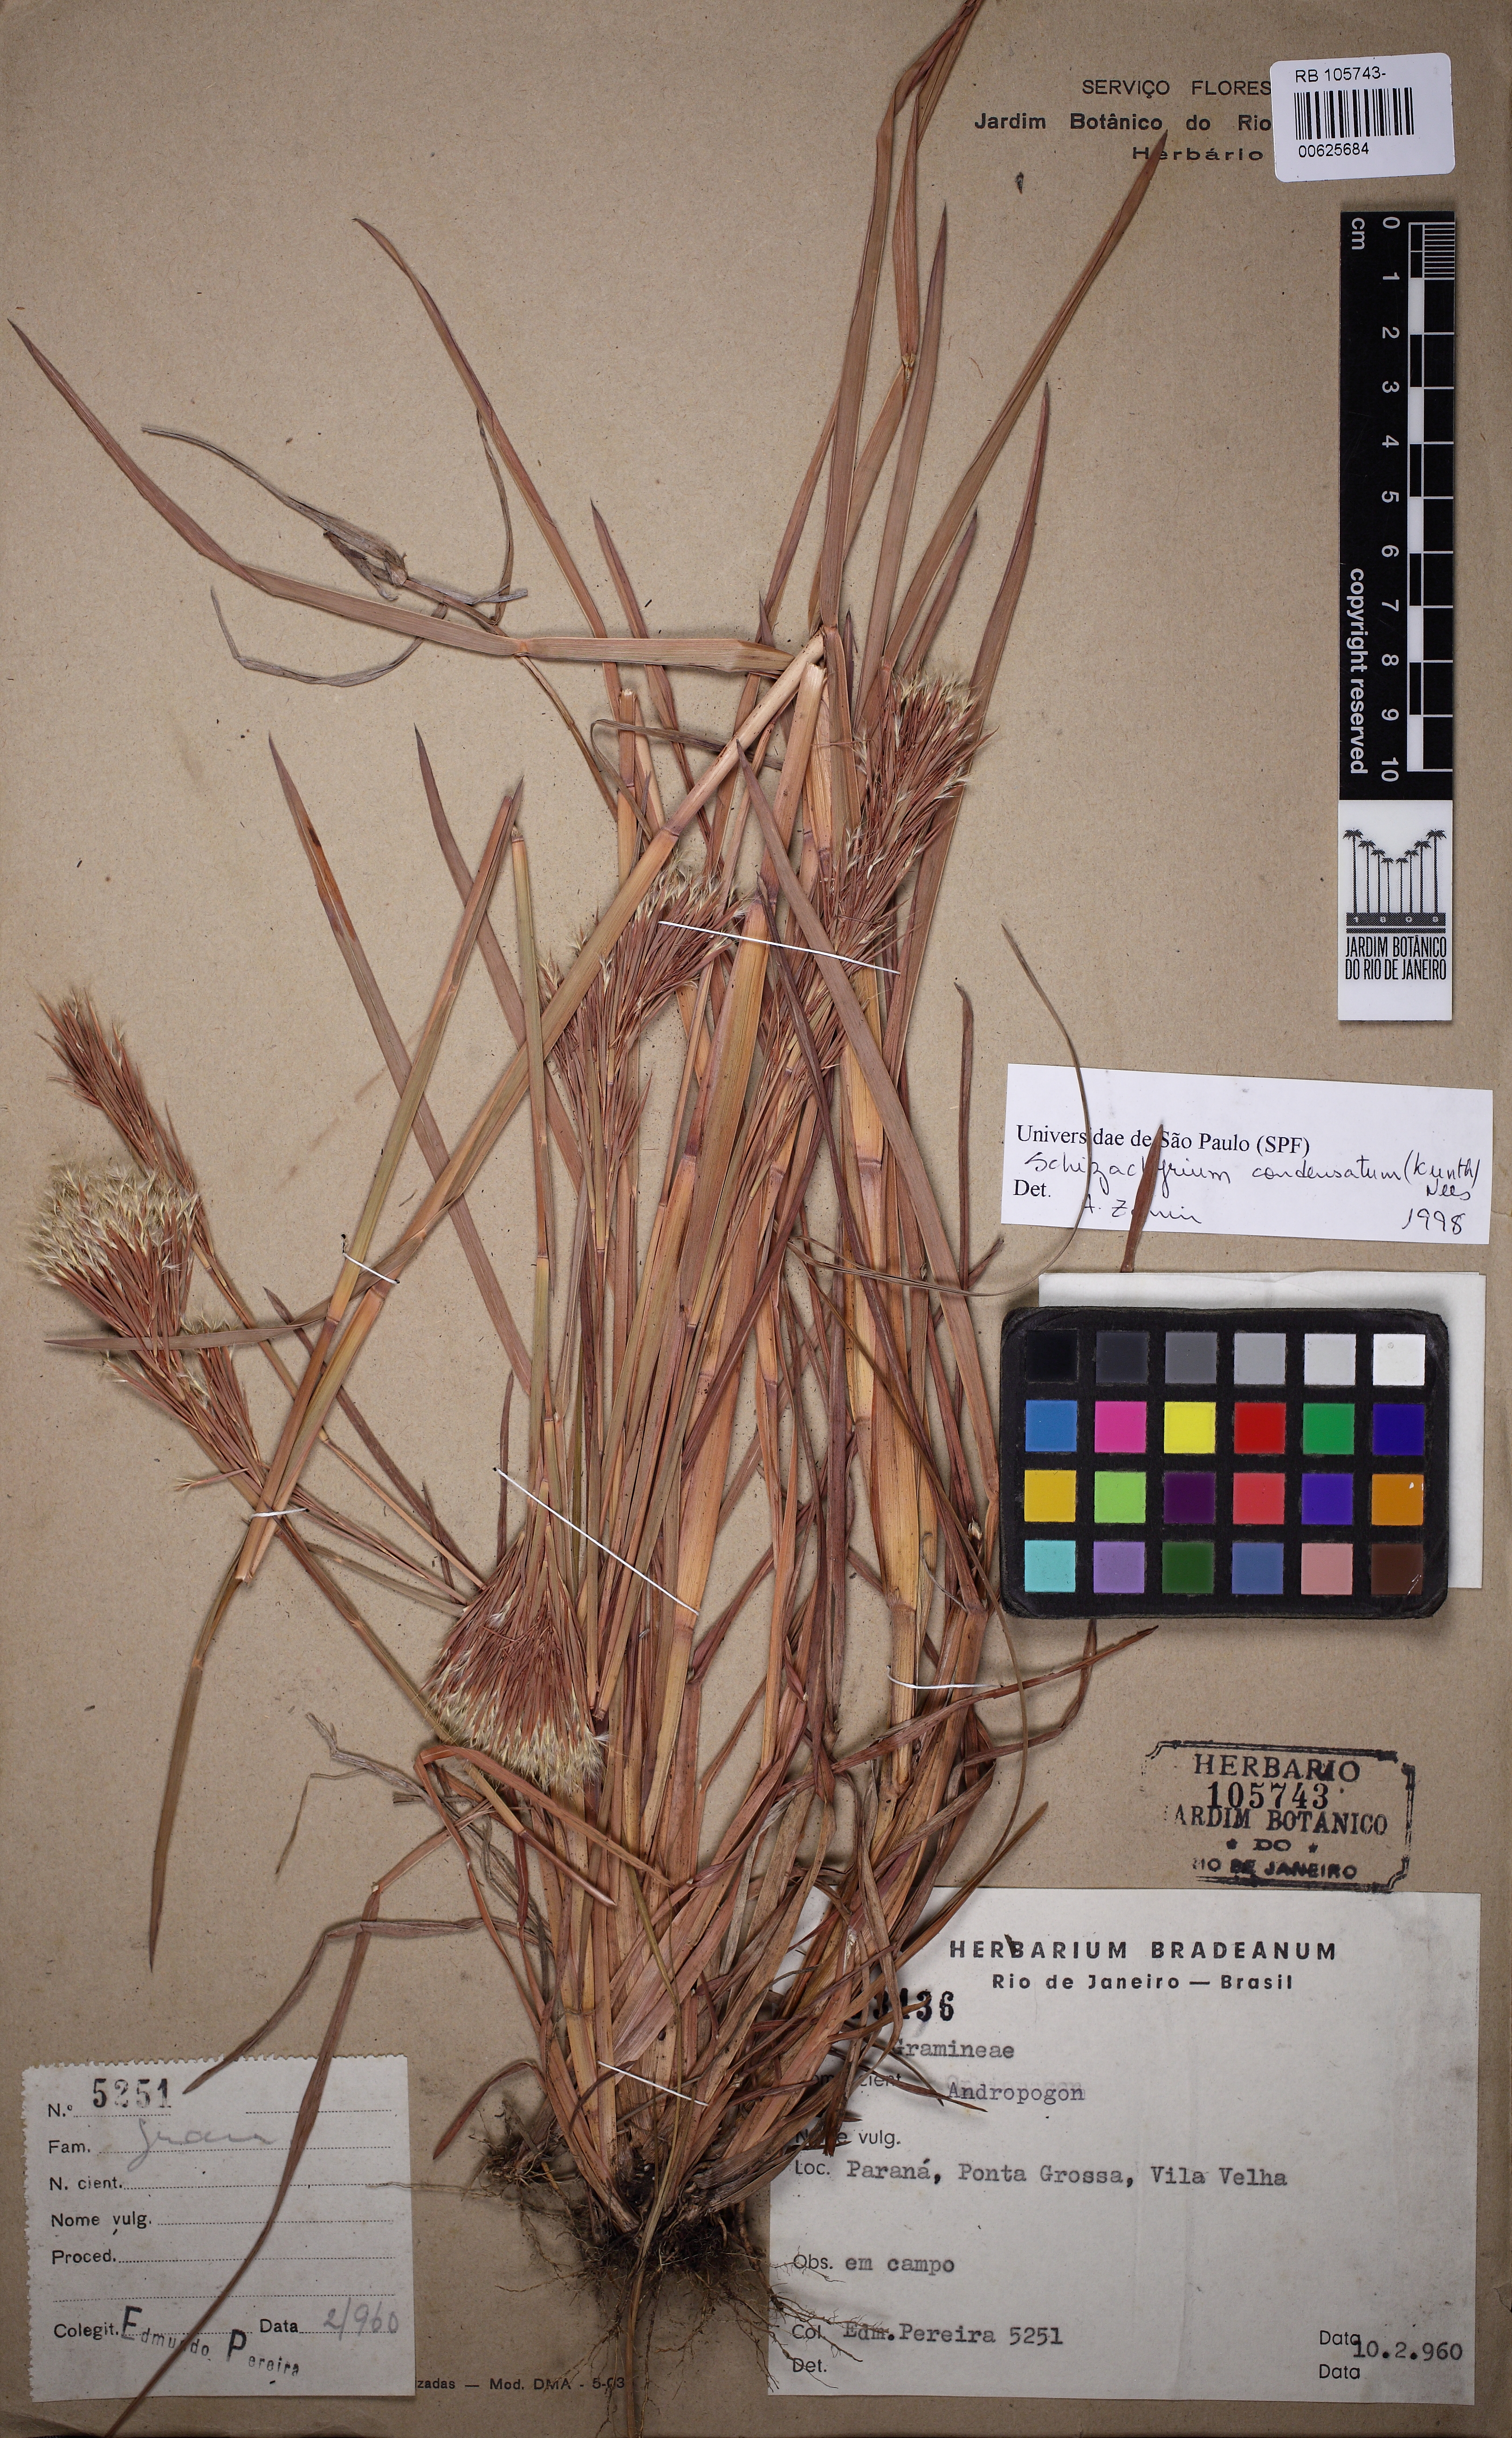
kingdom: Plantae
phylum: Tracheophyta
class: Liliopsida
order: Poales
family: Poaceae
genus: Schizachyrium
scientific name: Schizachyrium condensatum
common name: Bush beardgrass
